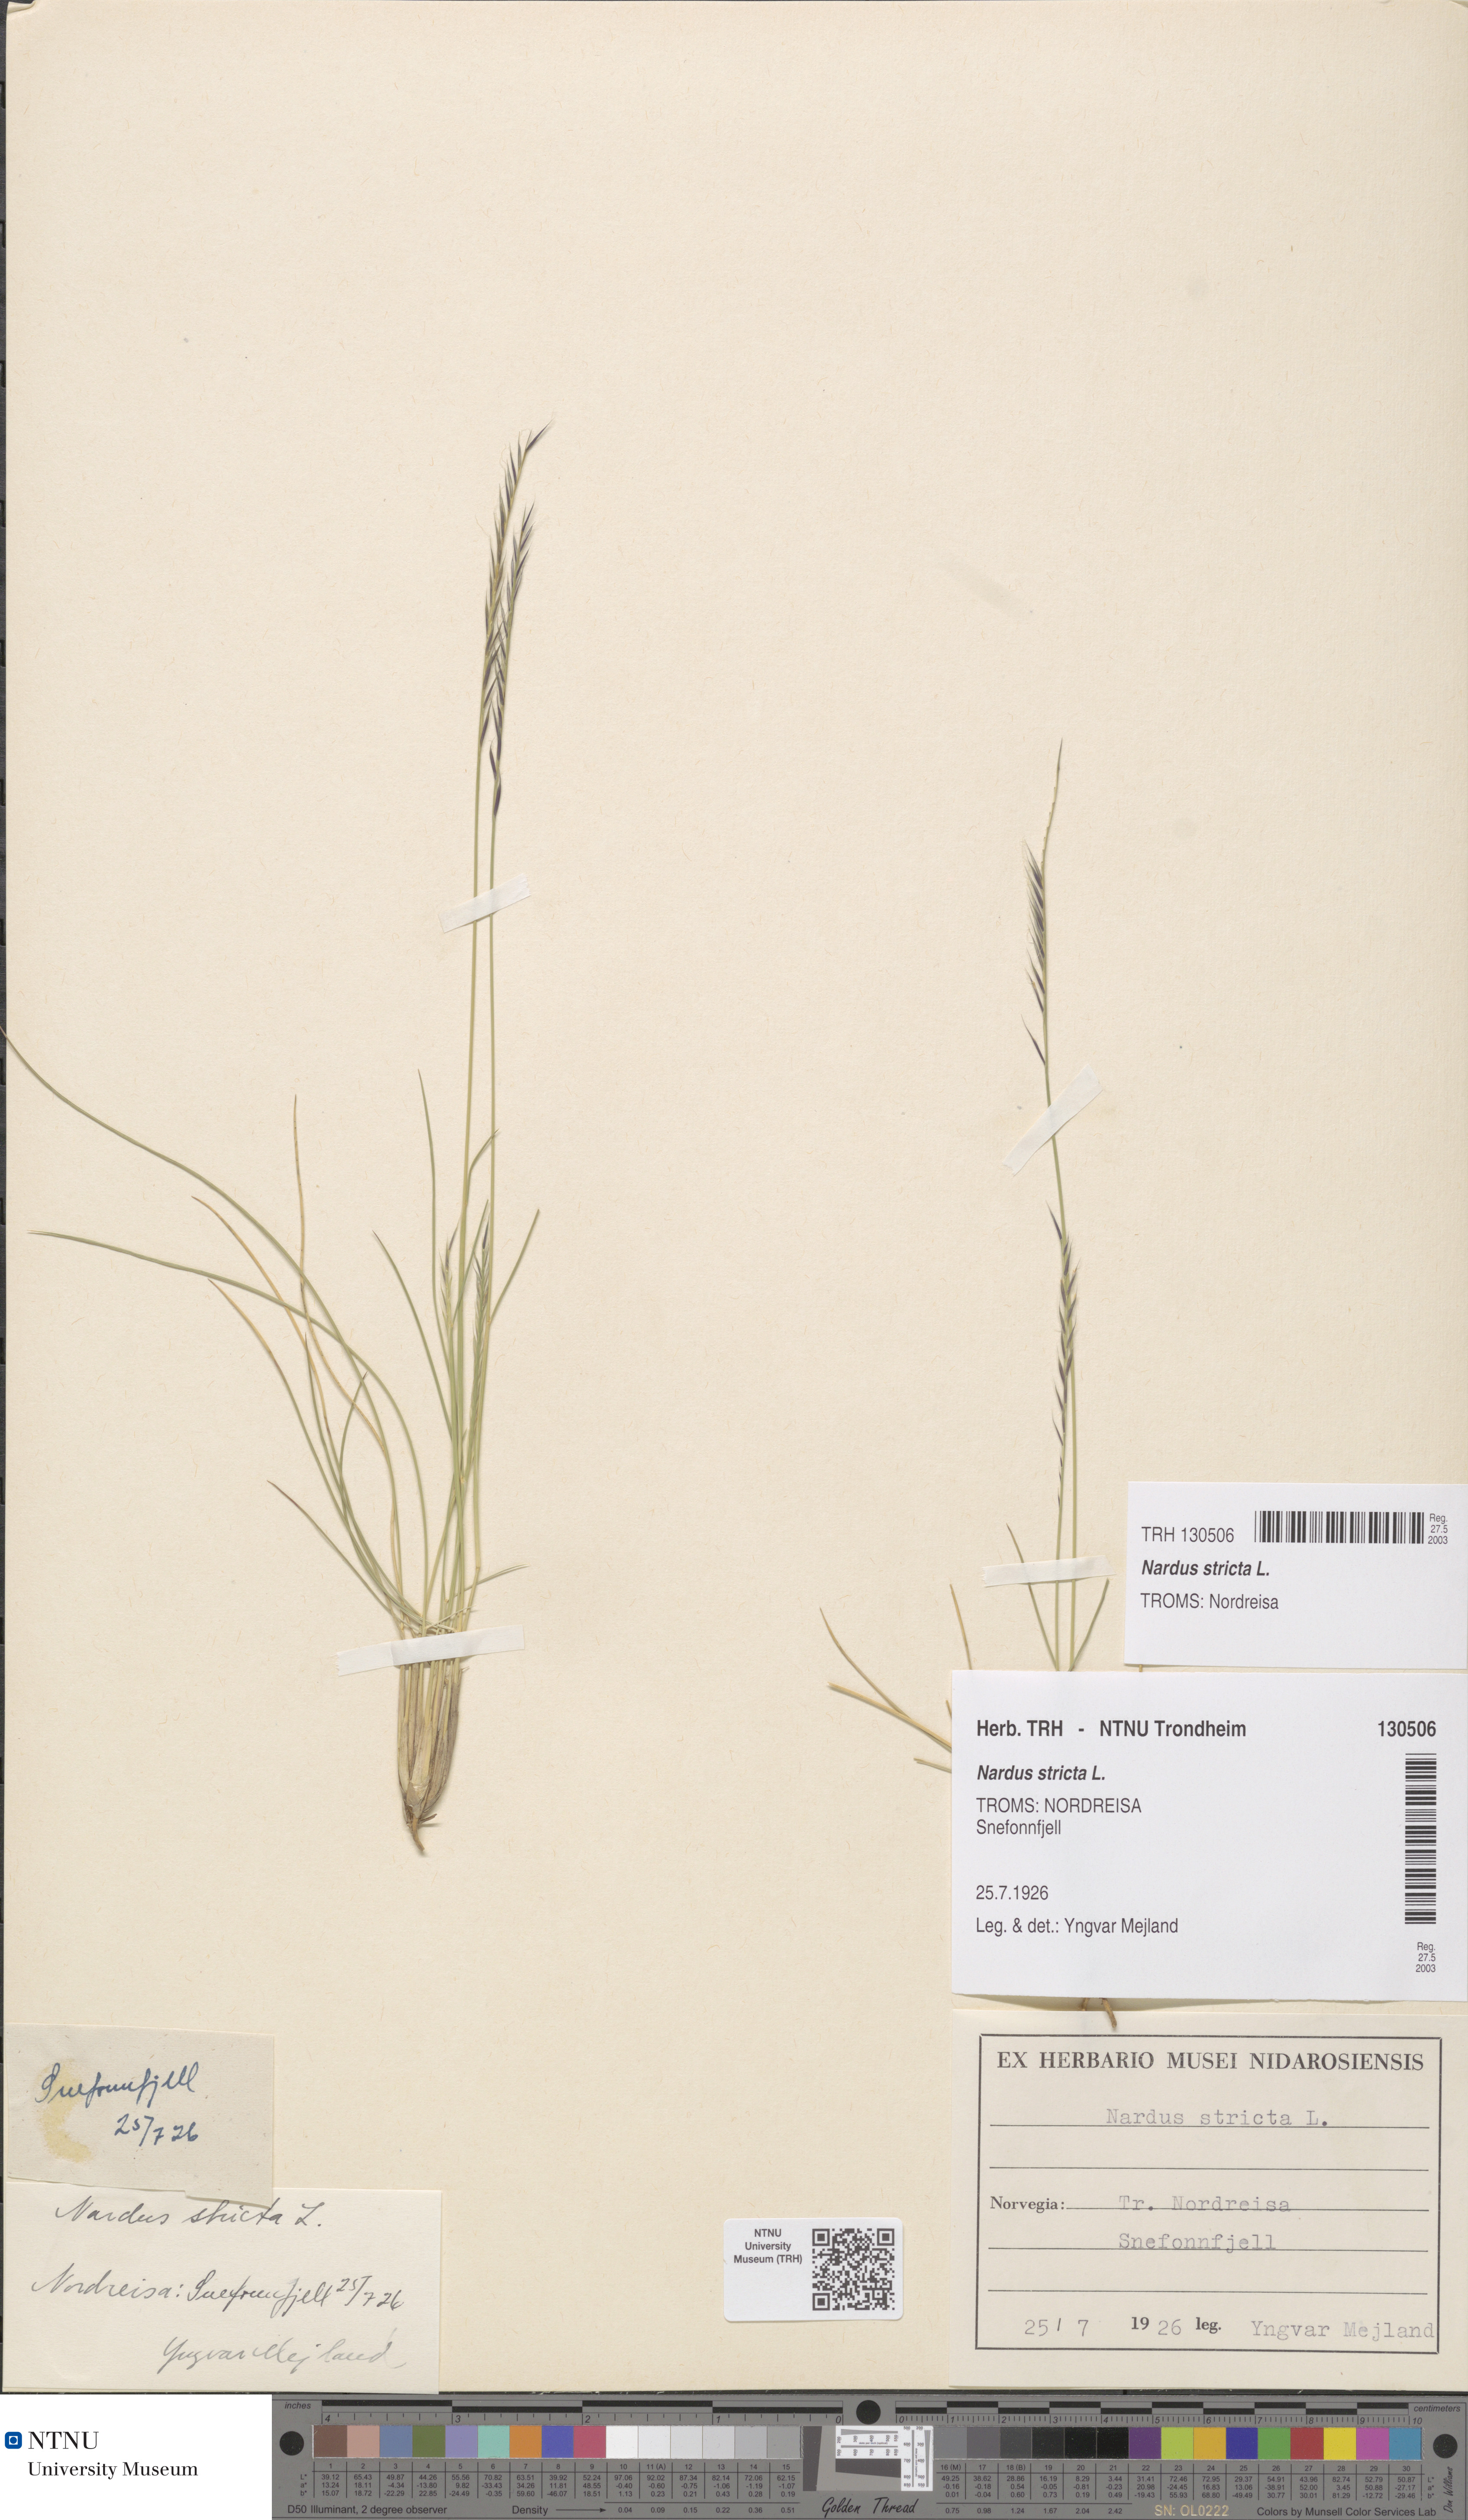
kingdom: Plantae
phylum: Tracheophyta
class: Liliopsida
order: Poales
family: Poaceae
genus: Nardus
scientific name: Nardus stricta
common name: Mat-grass
